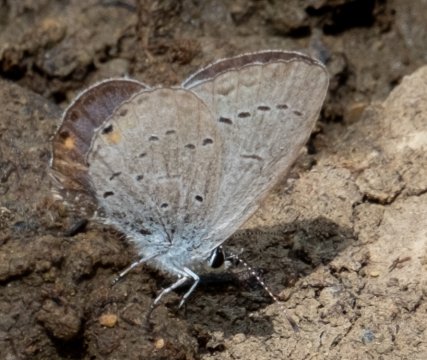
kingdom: Animalia
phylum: Arthropoda
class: Insecta
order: Lepidoptera
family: Lycaenidae
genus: Elkalyce
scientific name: Elkalyce comyntas
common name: Eastern Tailed-Blue
